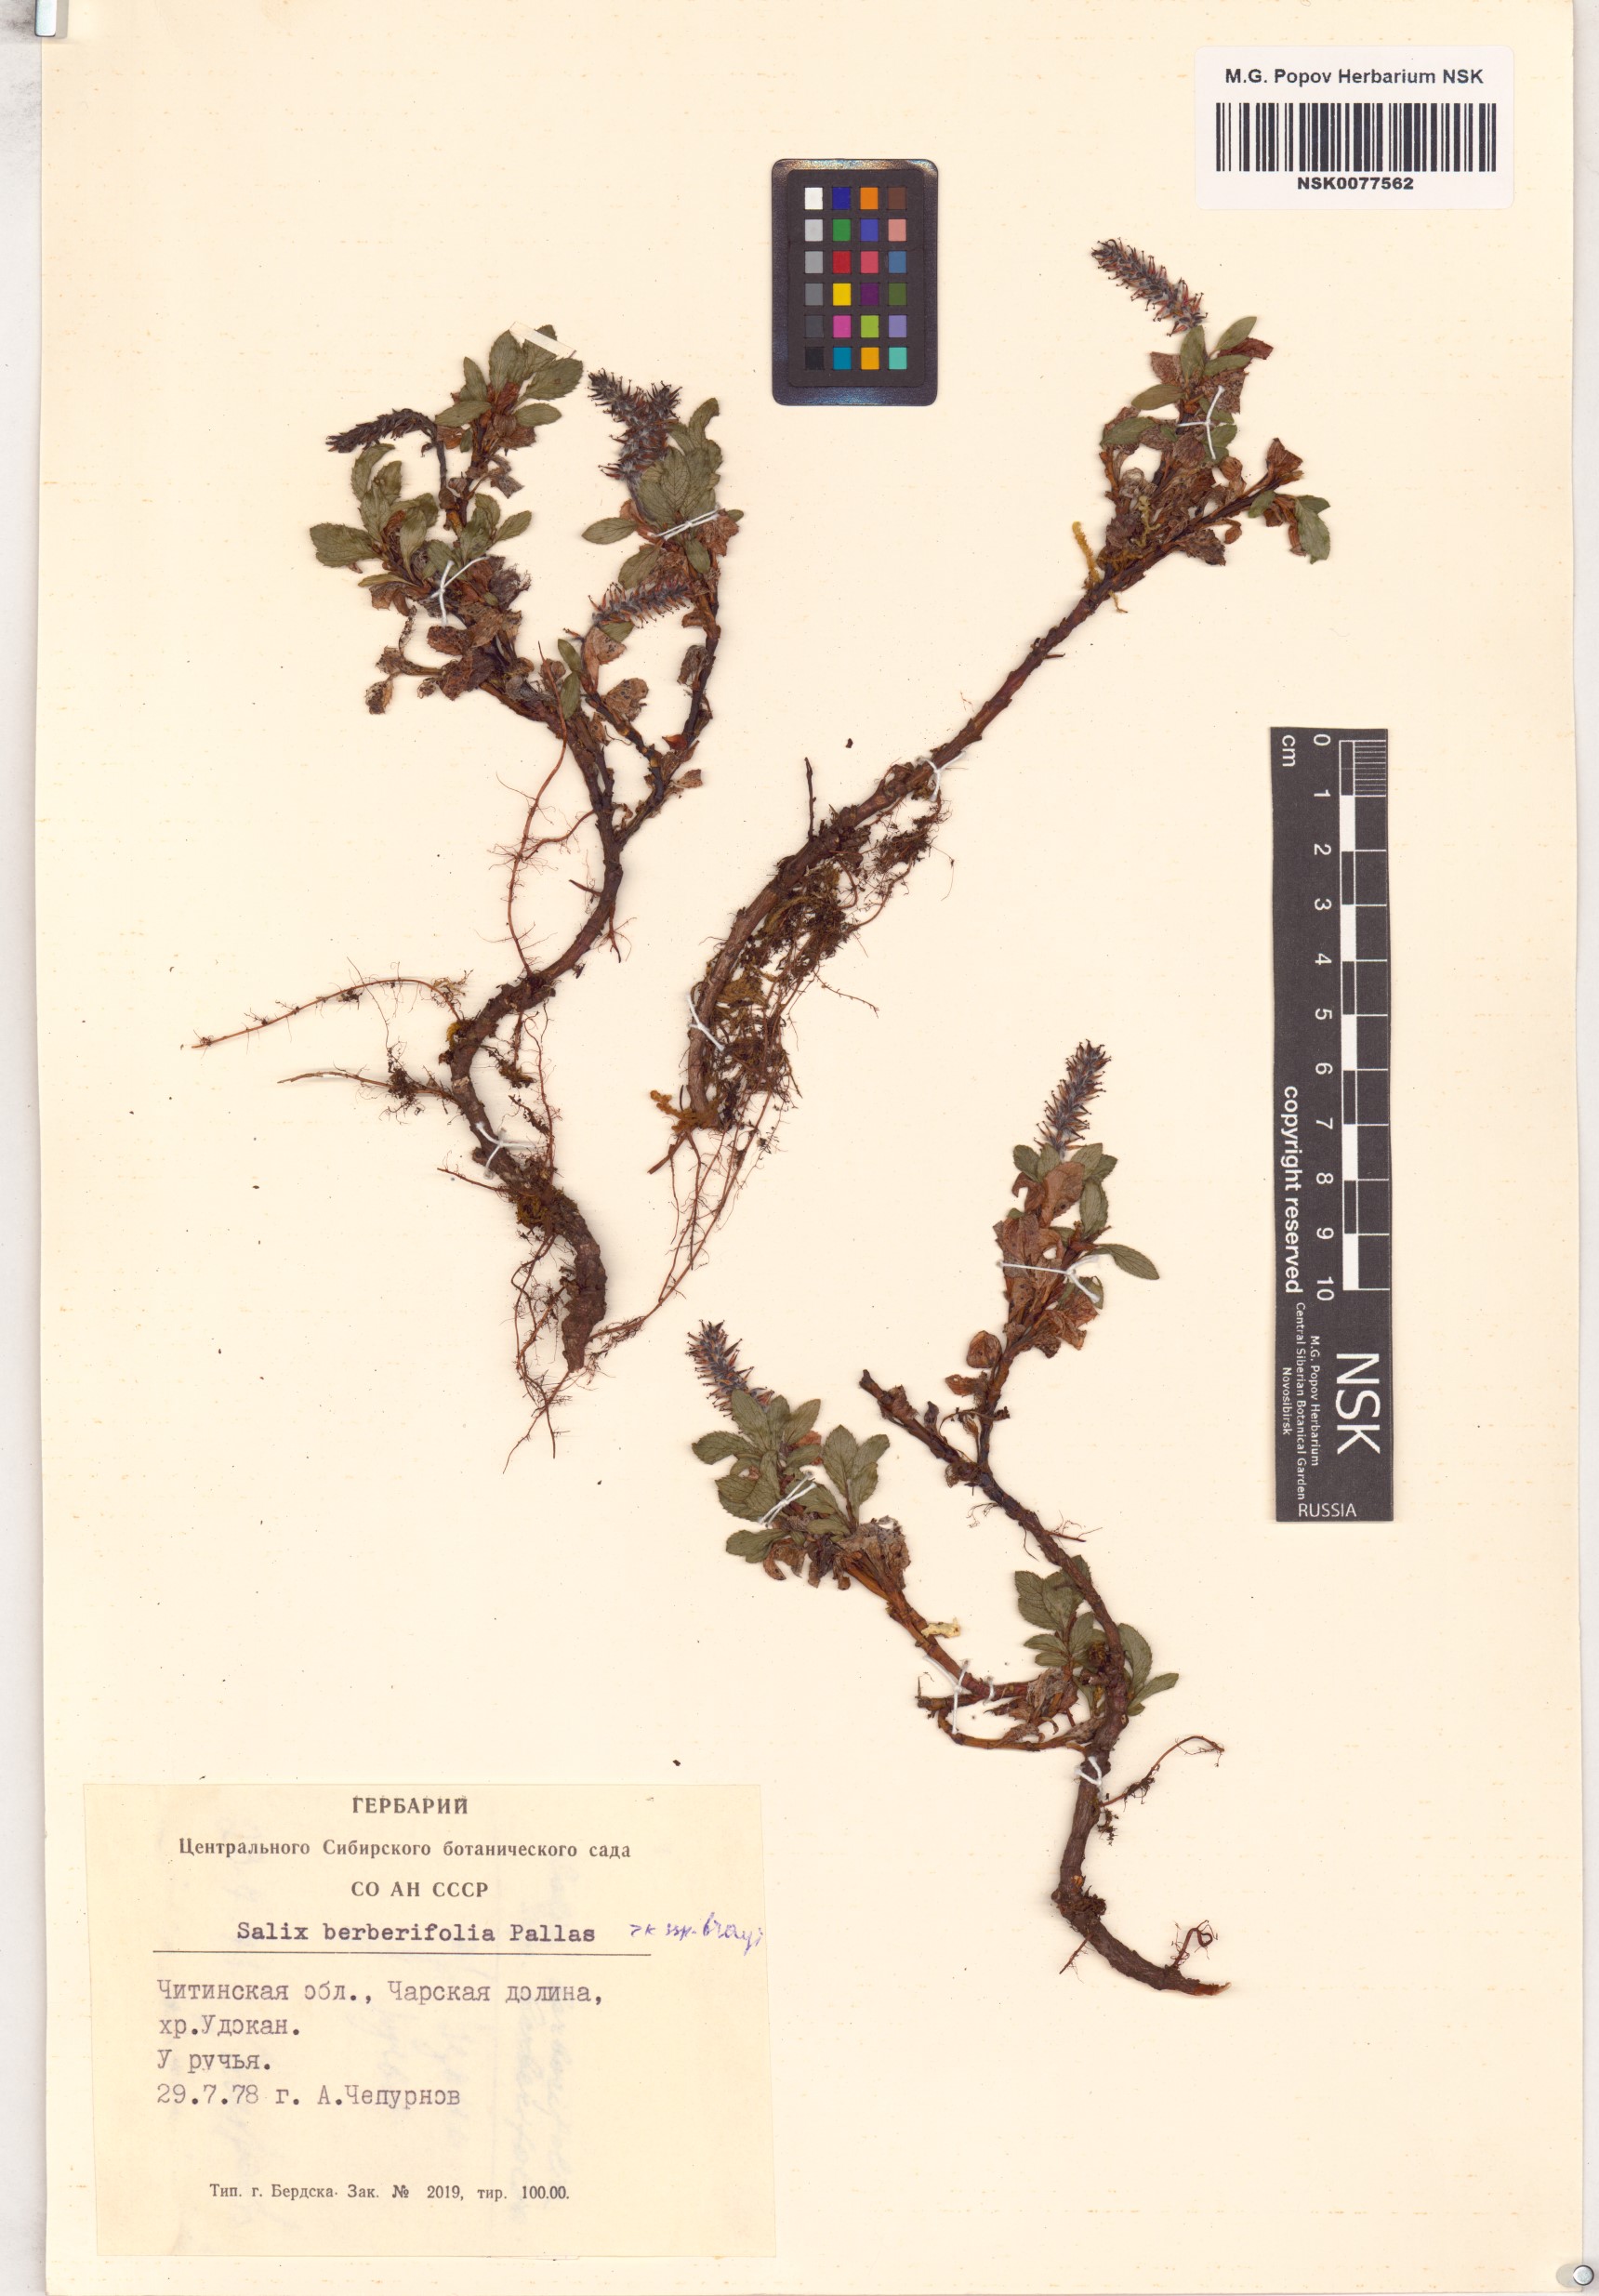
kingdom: Plantae
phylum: Tracheophyta
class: Magnoliopsida
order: Malpighiales
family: Salicaceae
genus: Salix
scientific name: Salix berberifolia
